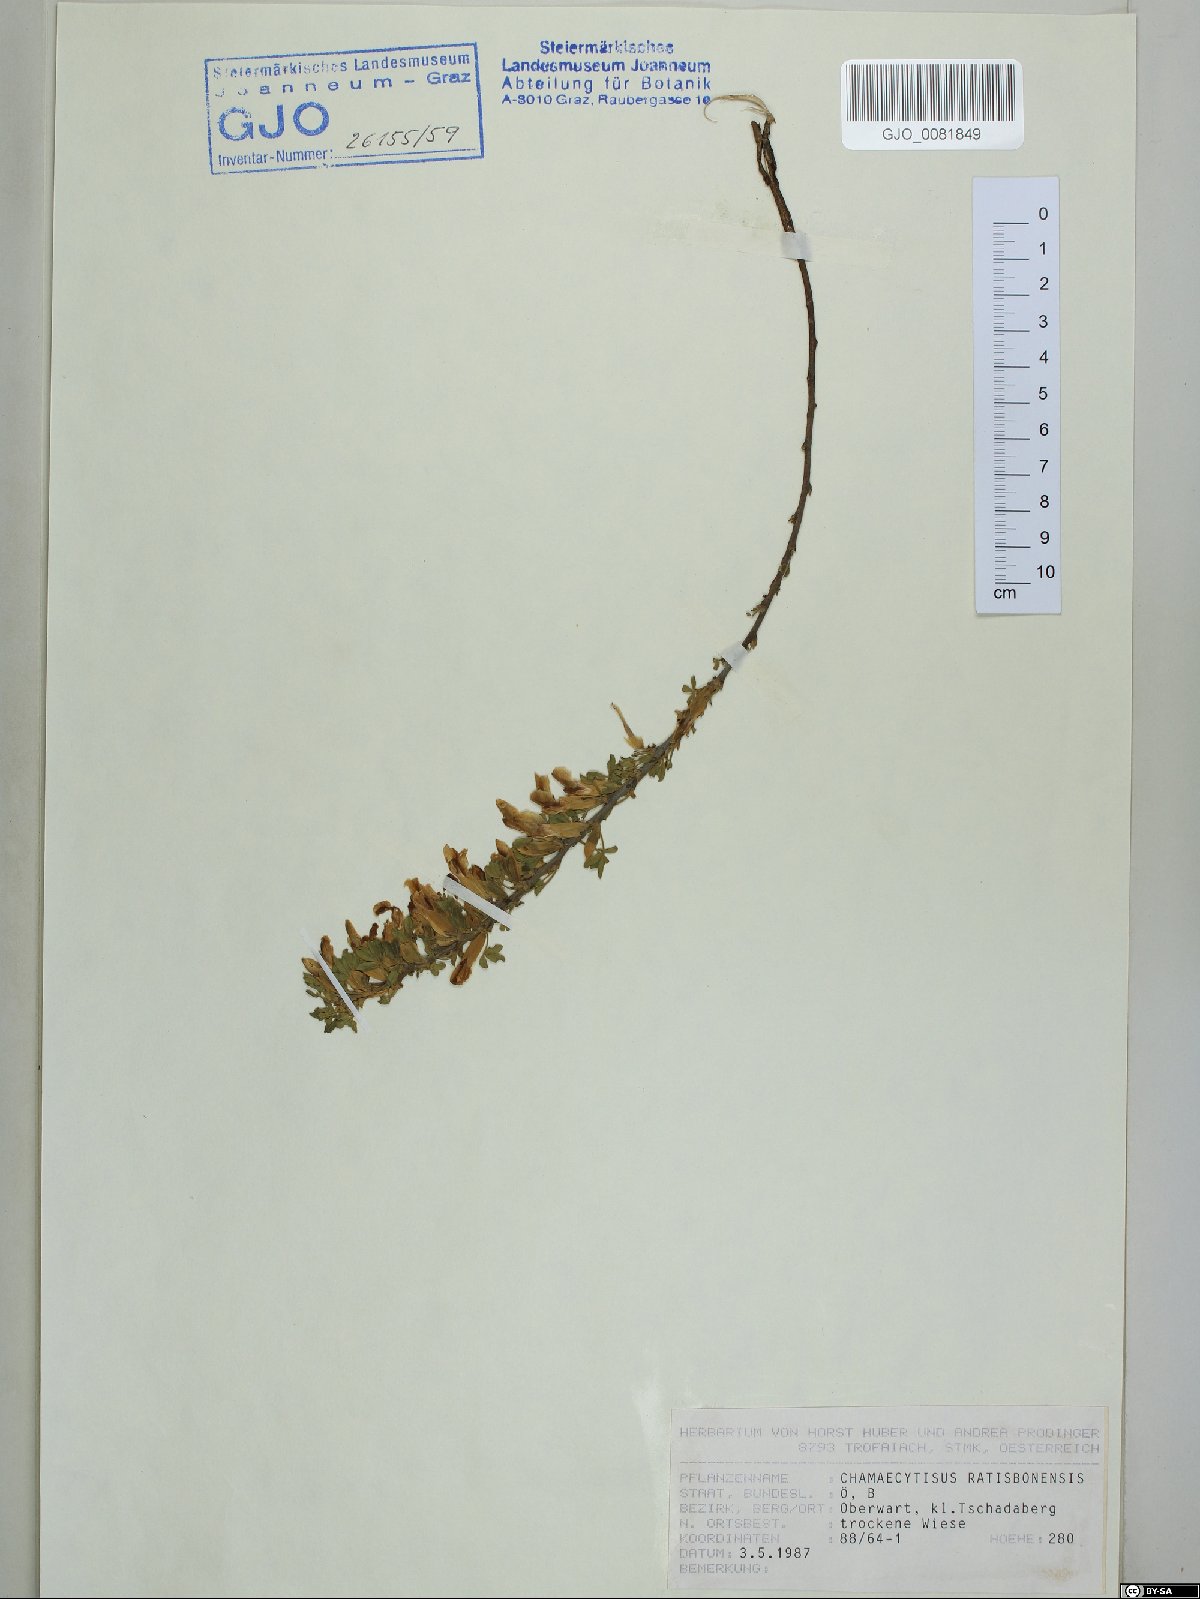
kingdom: Plantae
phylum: Tracheophyta
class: Magnoliopsida
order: Fabales
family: Fabaceae
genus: Chamaecytisus
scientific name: Chamaecytisus ratisbonensis
